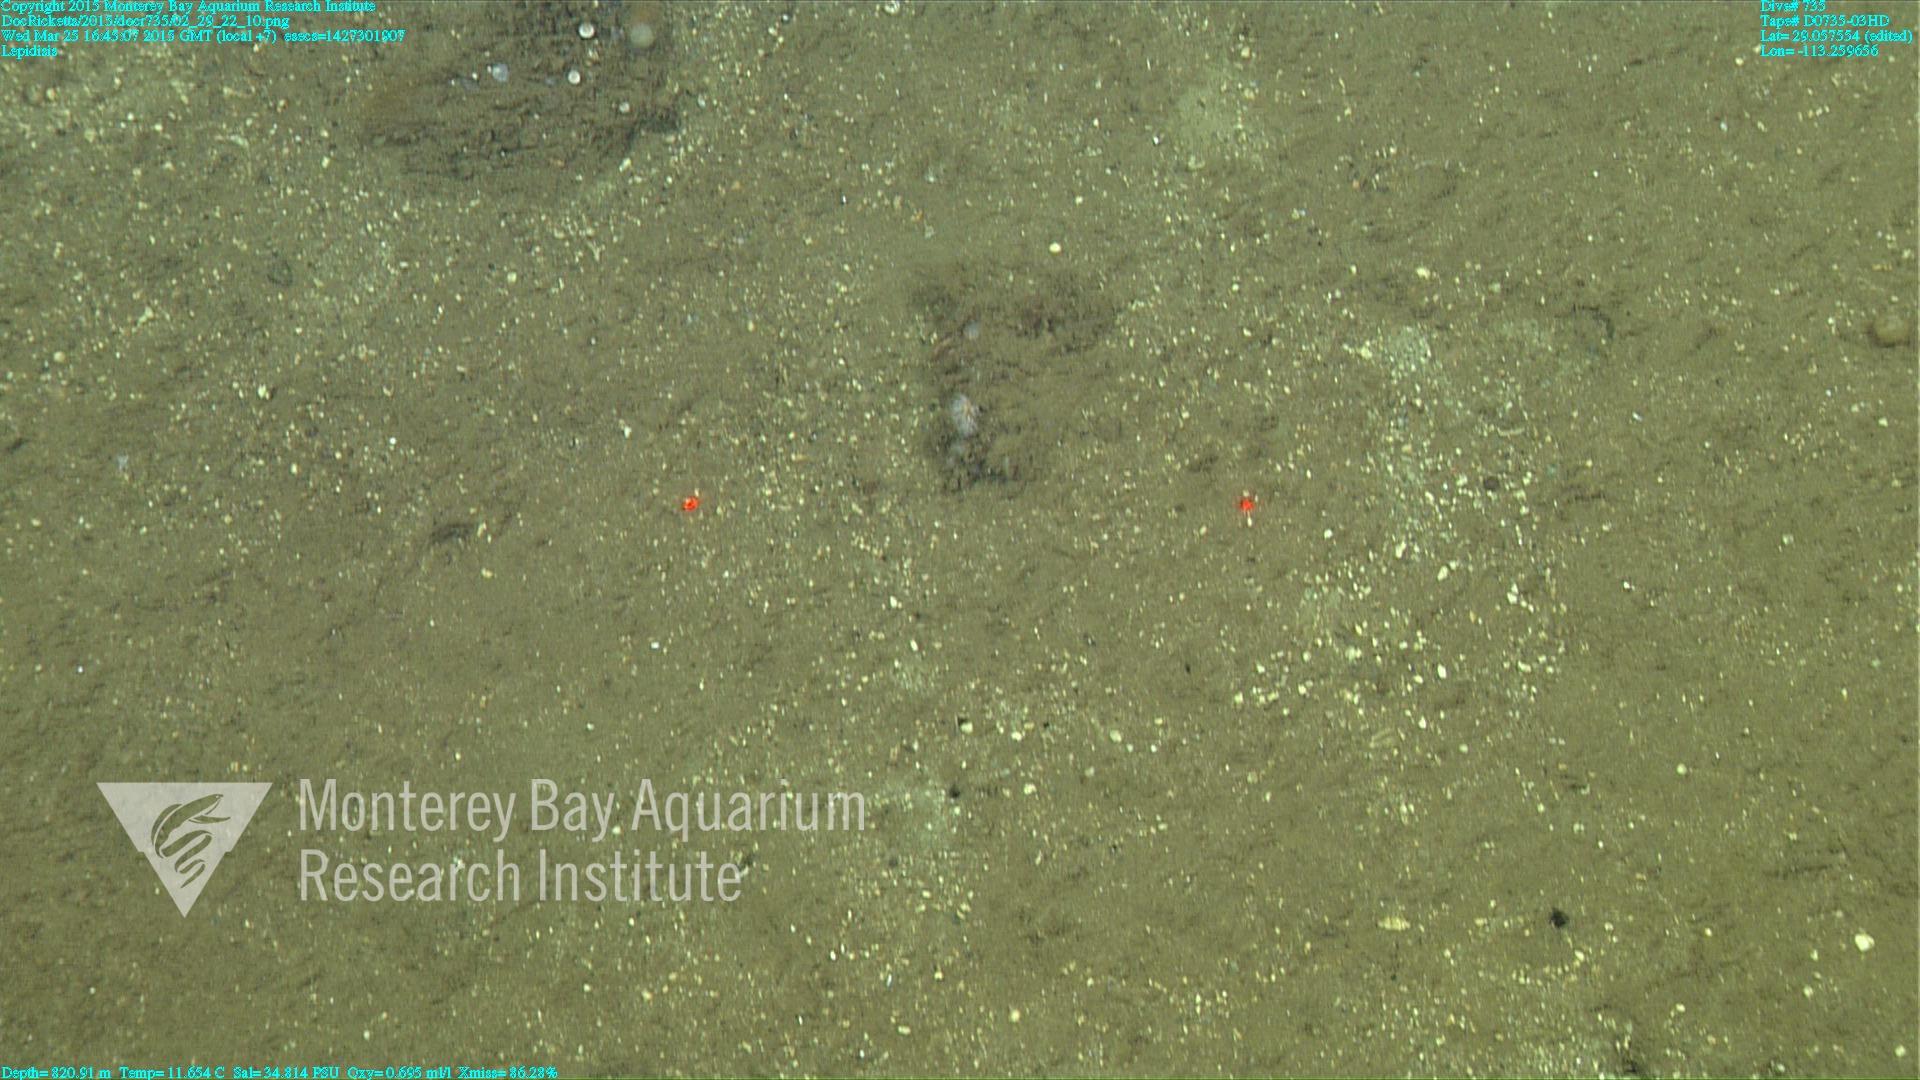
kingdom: Animalia
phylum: Cnidaria
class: Anthozoa
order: Scleralcyonacea
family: Keratoisididae
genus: Lepidisis
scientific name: Lepidisis
